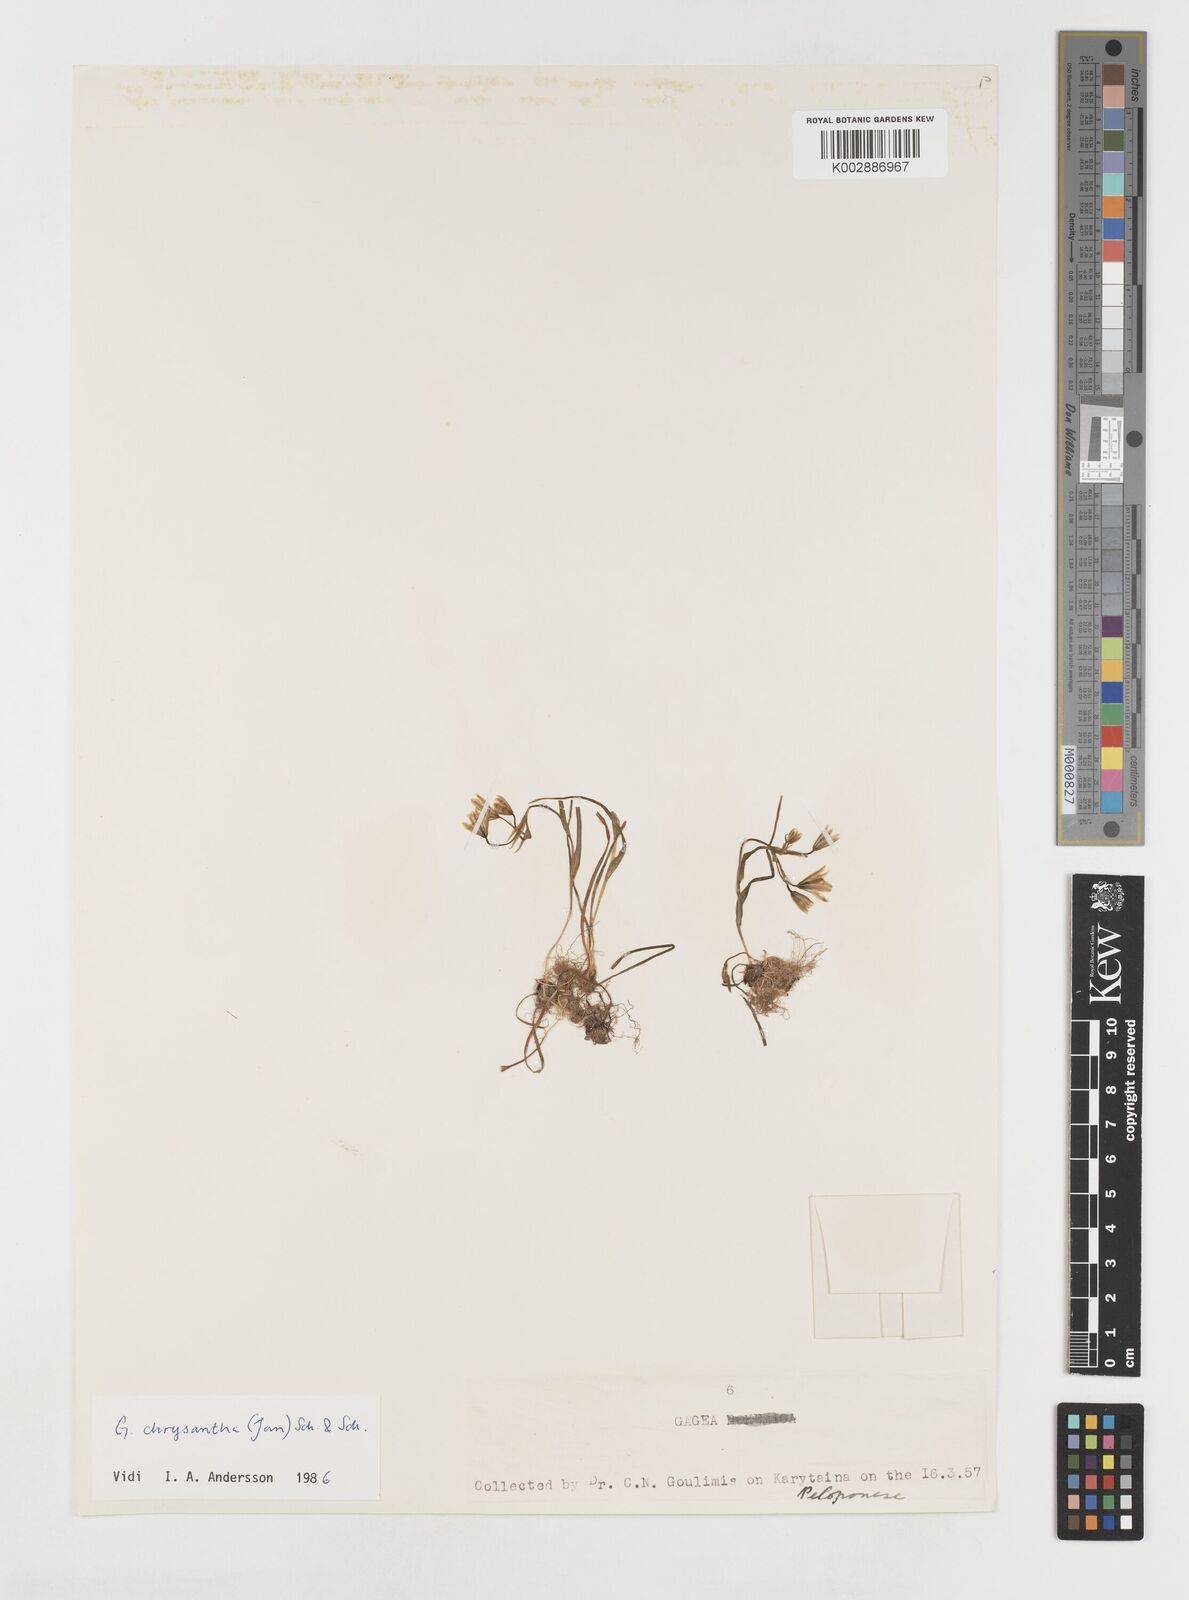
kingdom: Plantae
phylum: Tracheophyta
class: Liliopsida
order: Liliales
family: Liliaceae
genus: Gagea
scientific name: Gagea amblyopetala
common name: Blunt-flowered gagea
